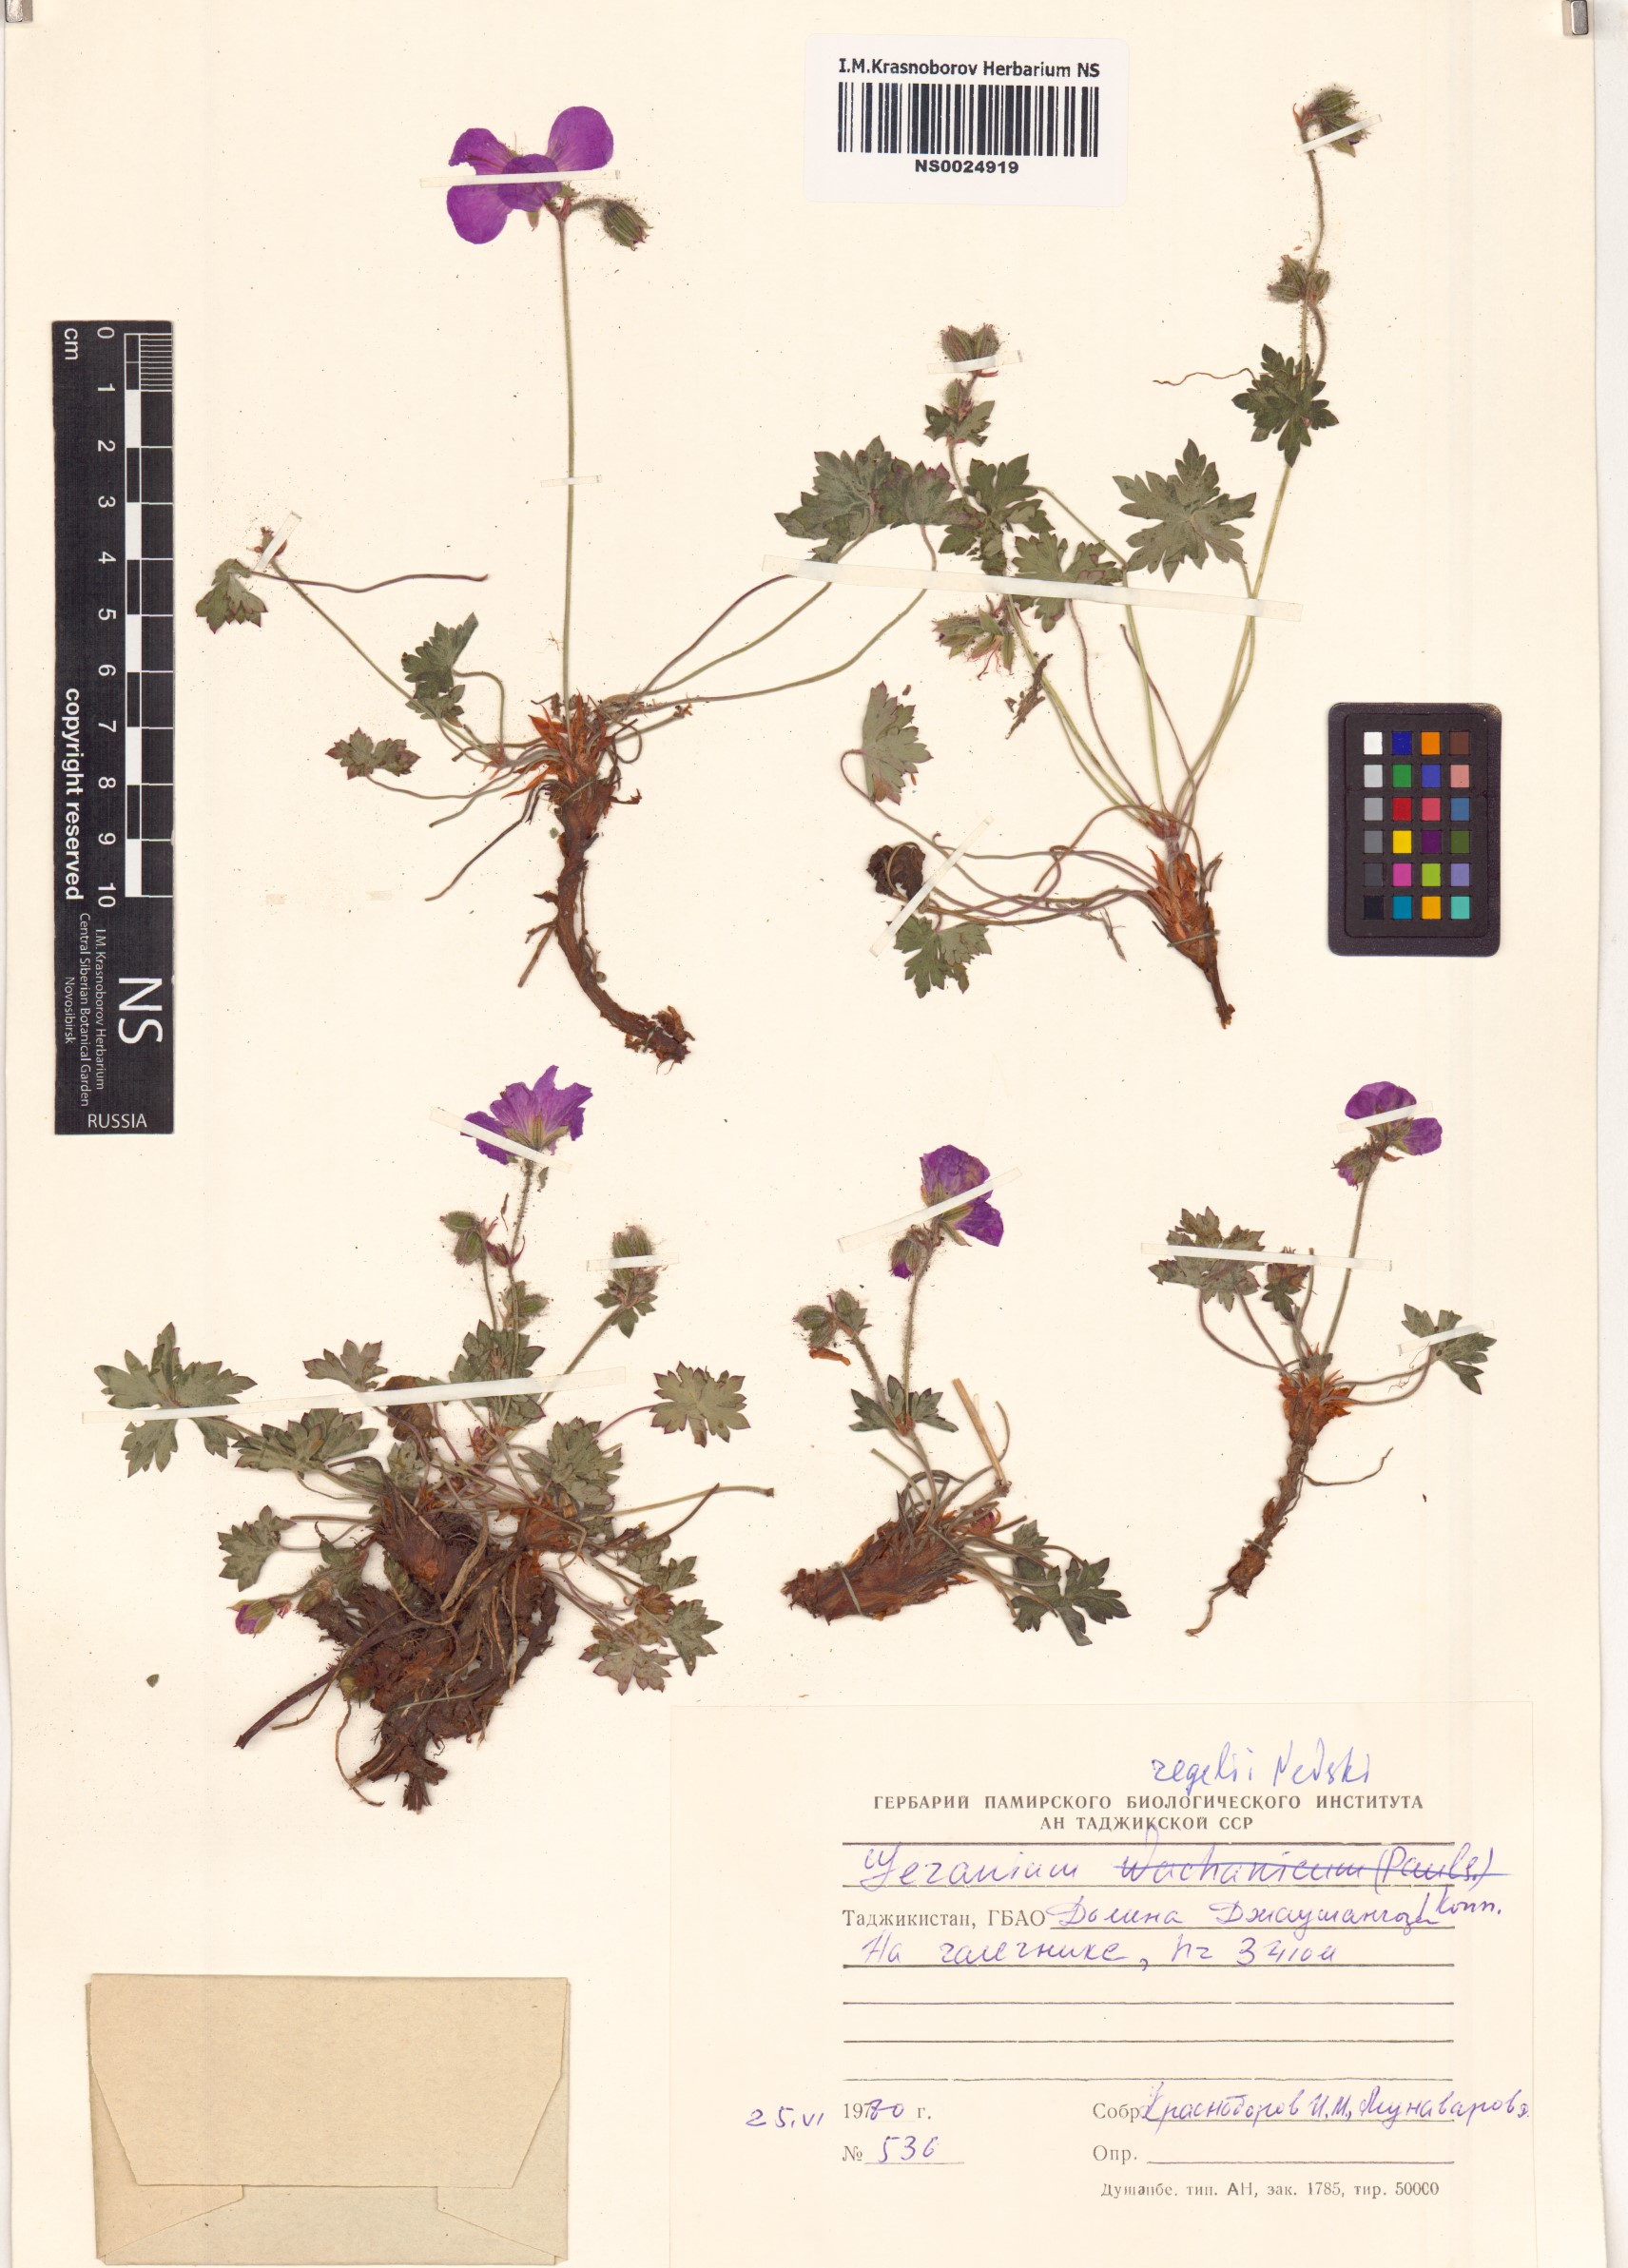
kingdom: Plantae
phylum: Tracheophyta
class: Magnoliopsida
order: Geraniales
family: Geraniaceae
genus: Geranium
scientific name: Geranium saxatile
